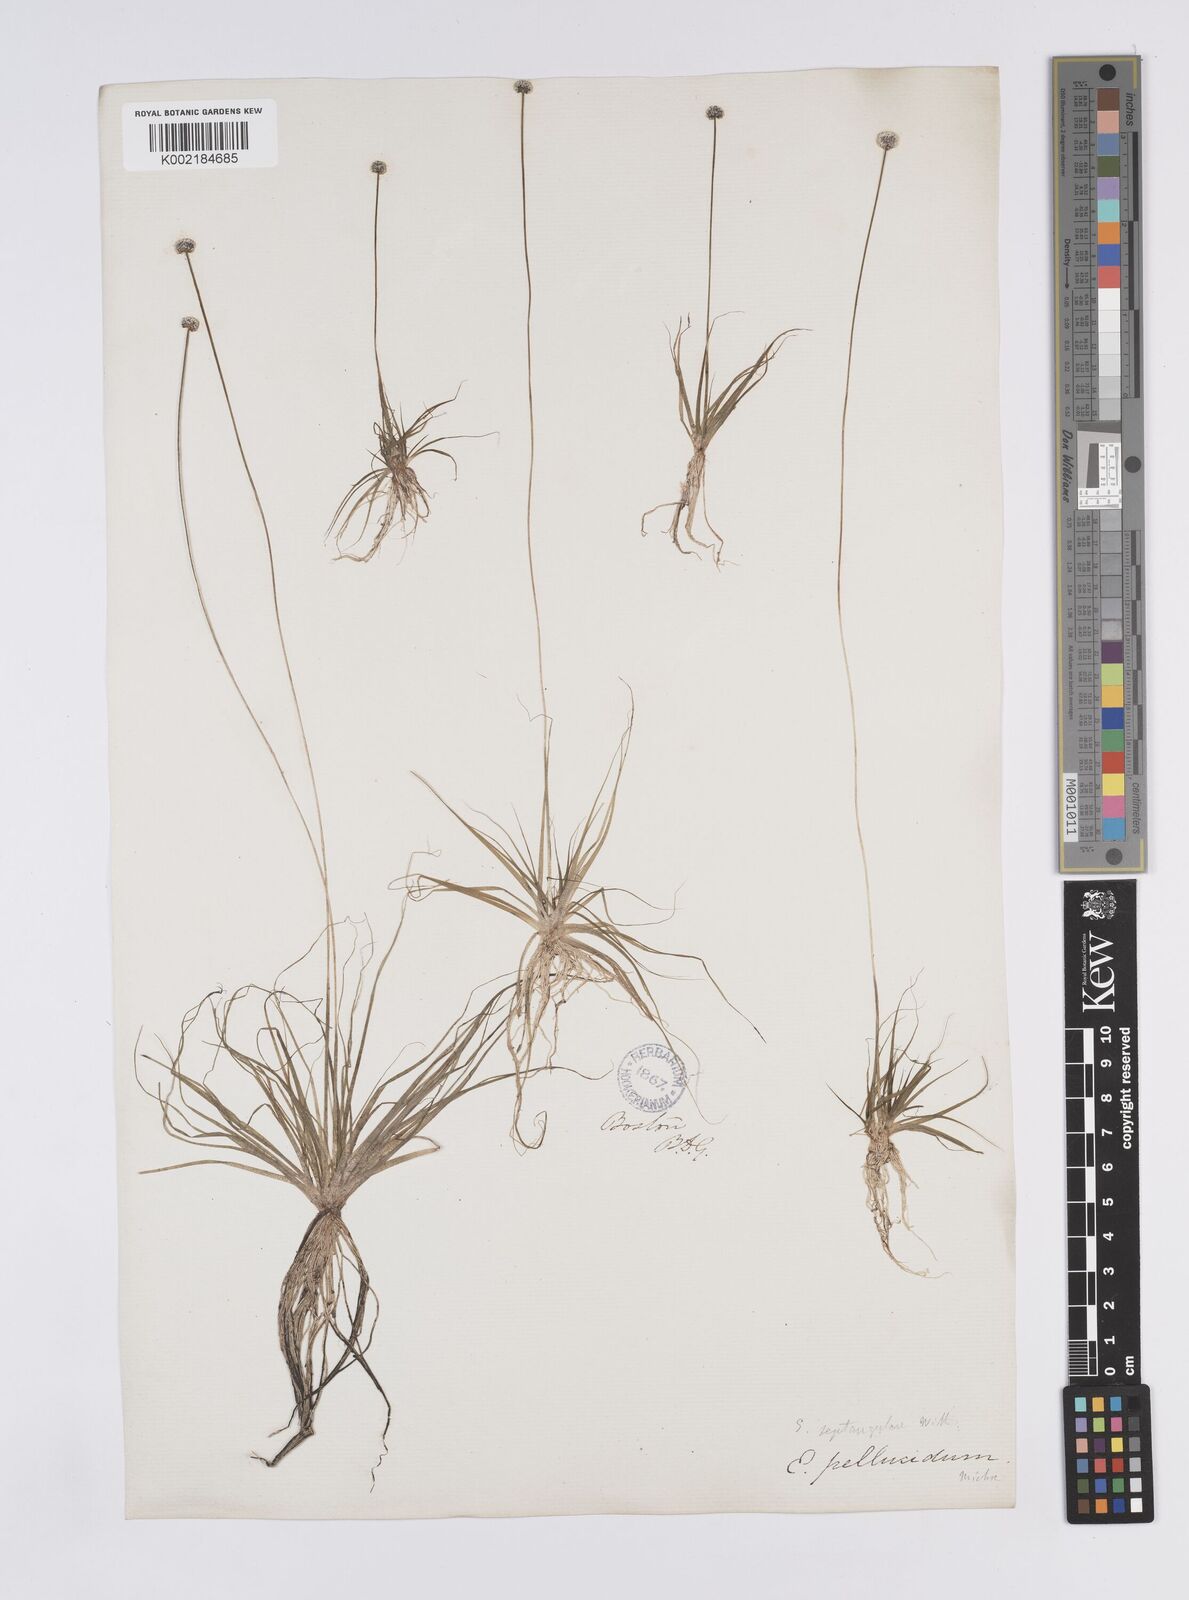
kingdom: Plantae
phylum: Tracheophyta
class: Liliopsida
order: Poales
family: Eriocaulaceae
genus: Eriocaulon
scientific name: Eriocaulon aquaticum
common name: Pipewort
